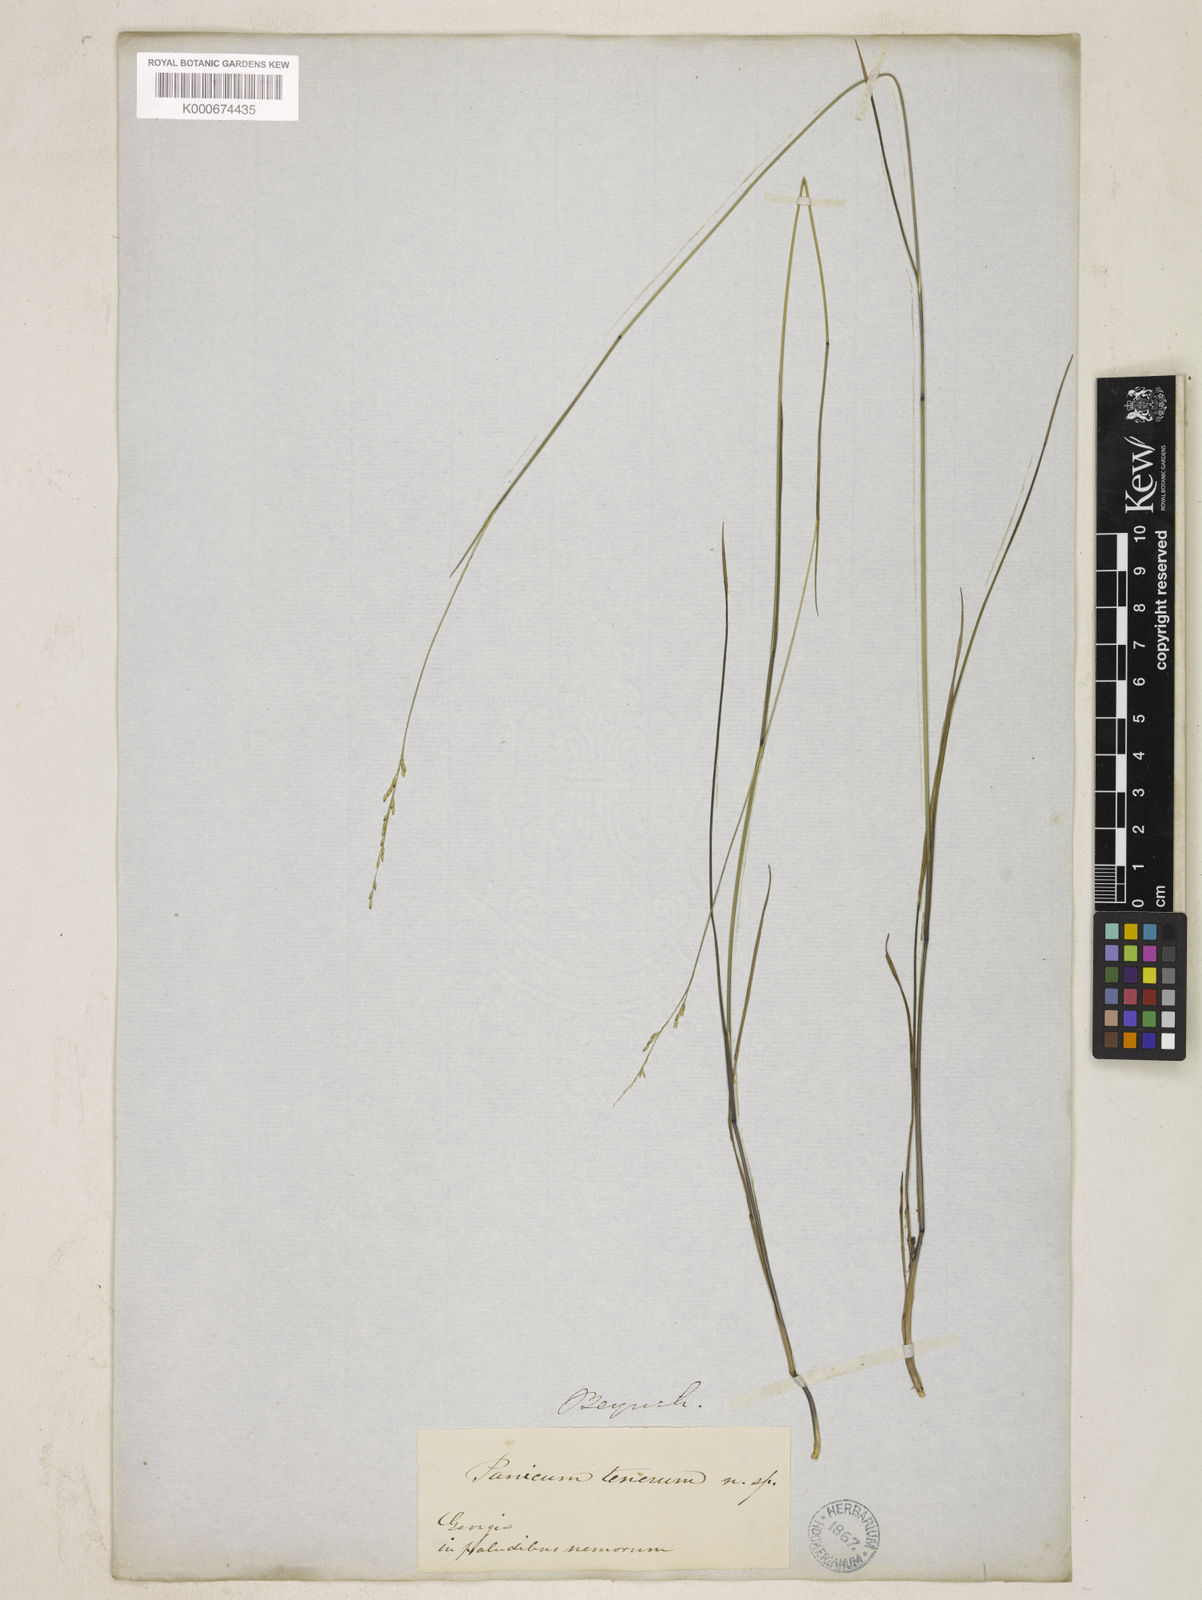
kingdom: Plantae
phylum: Tracheophyta
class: Liliopsida
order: Poales
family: Poaceae
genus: Panicum
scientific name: Panicum
